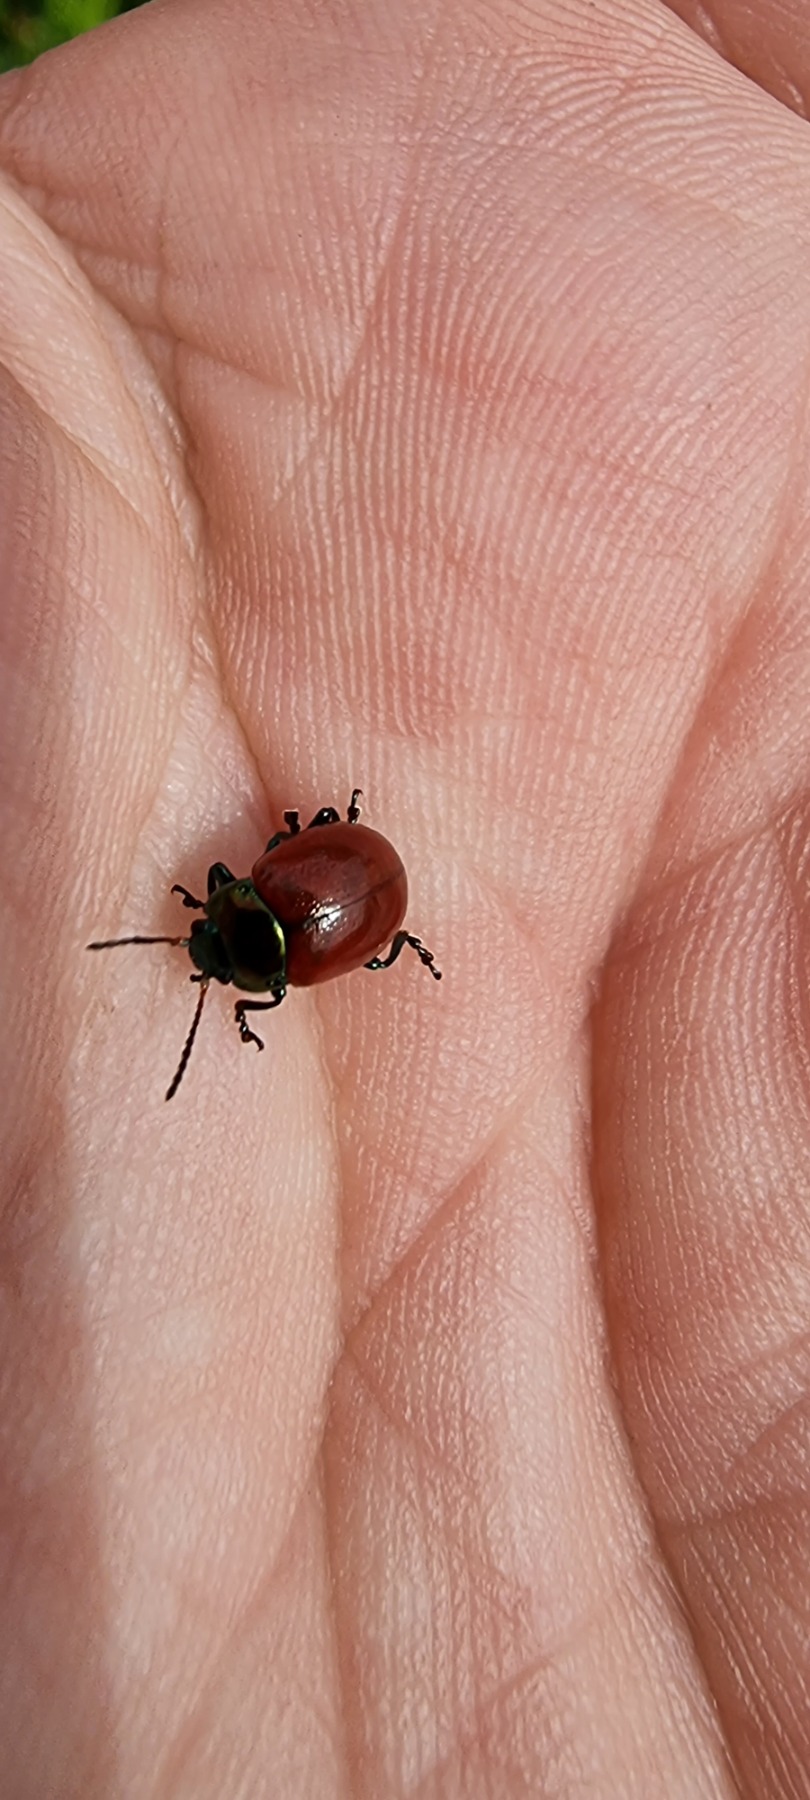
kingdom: Animalia
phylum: Arthropoda
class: Insecta
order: Coleoptera
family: Chrysomelidae
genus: Chrysomela
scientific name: Chrysomela polita
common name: Forskelligfarvet guldbille
